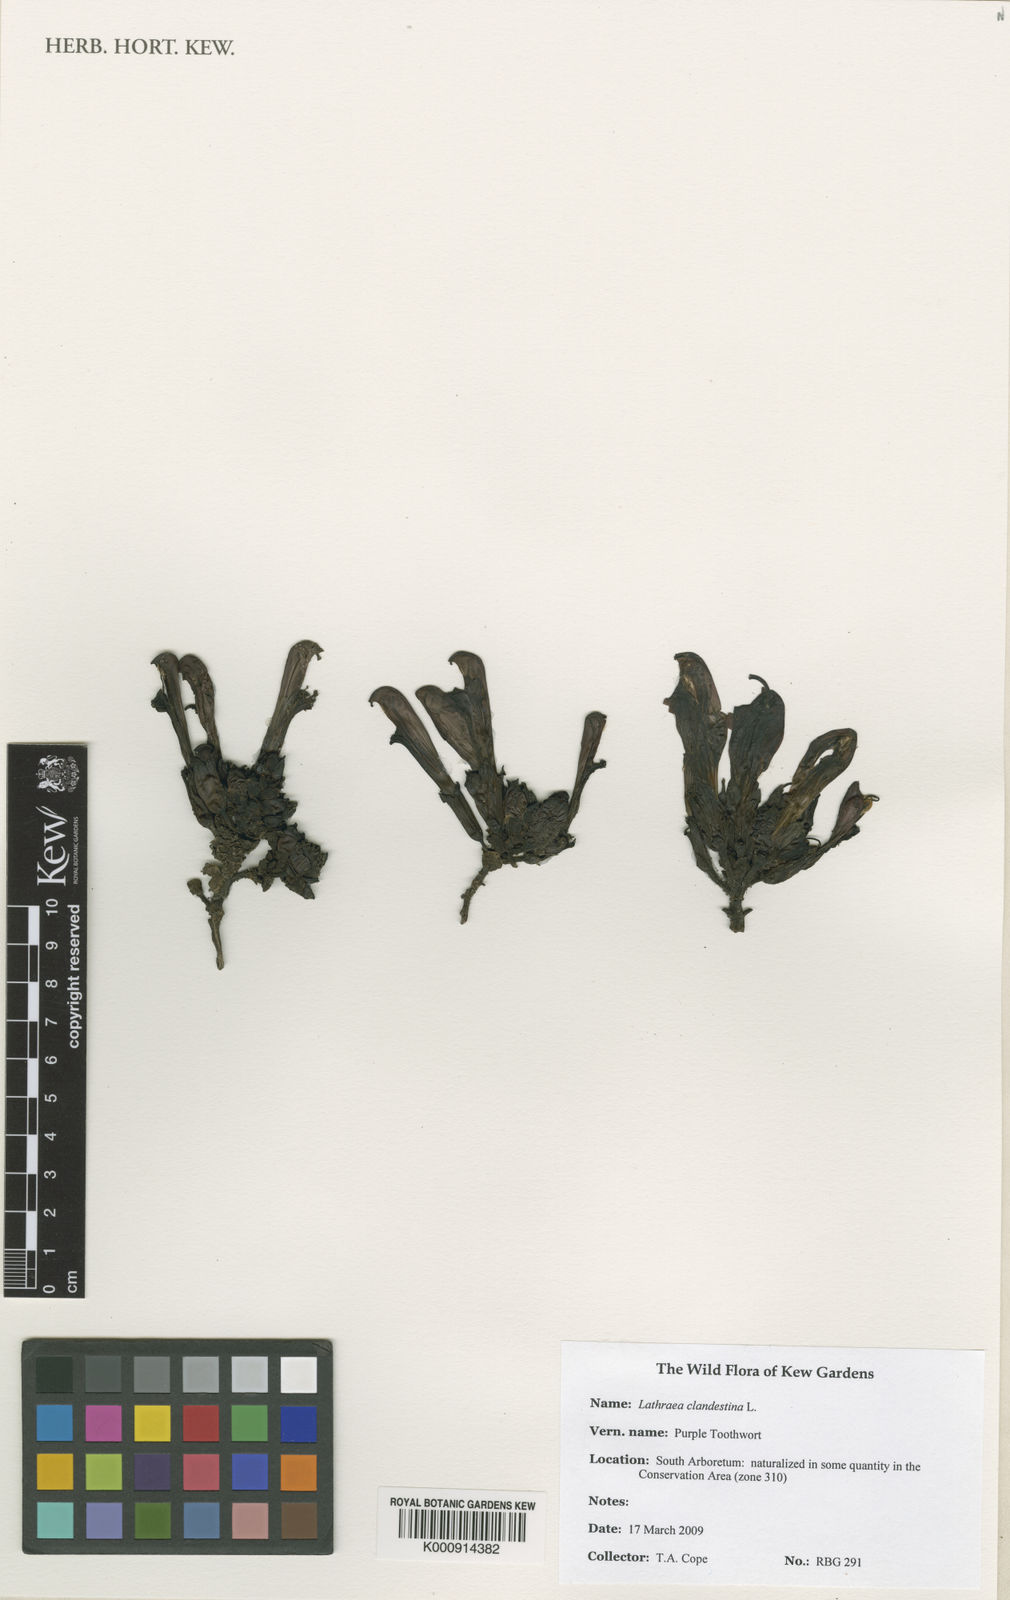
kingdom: Plantae
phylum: Tracheophyta
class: Magnoliopsida
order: Lamiales
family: Orobanchaceae
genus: Lathraea
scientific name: Lathraea clandestina
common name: Purple toothwort
